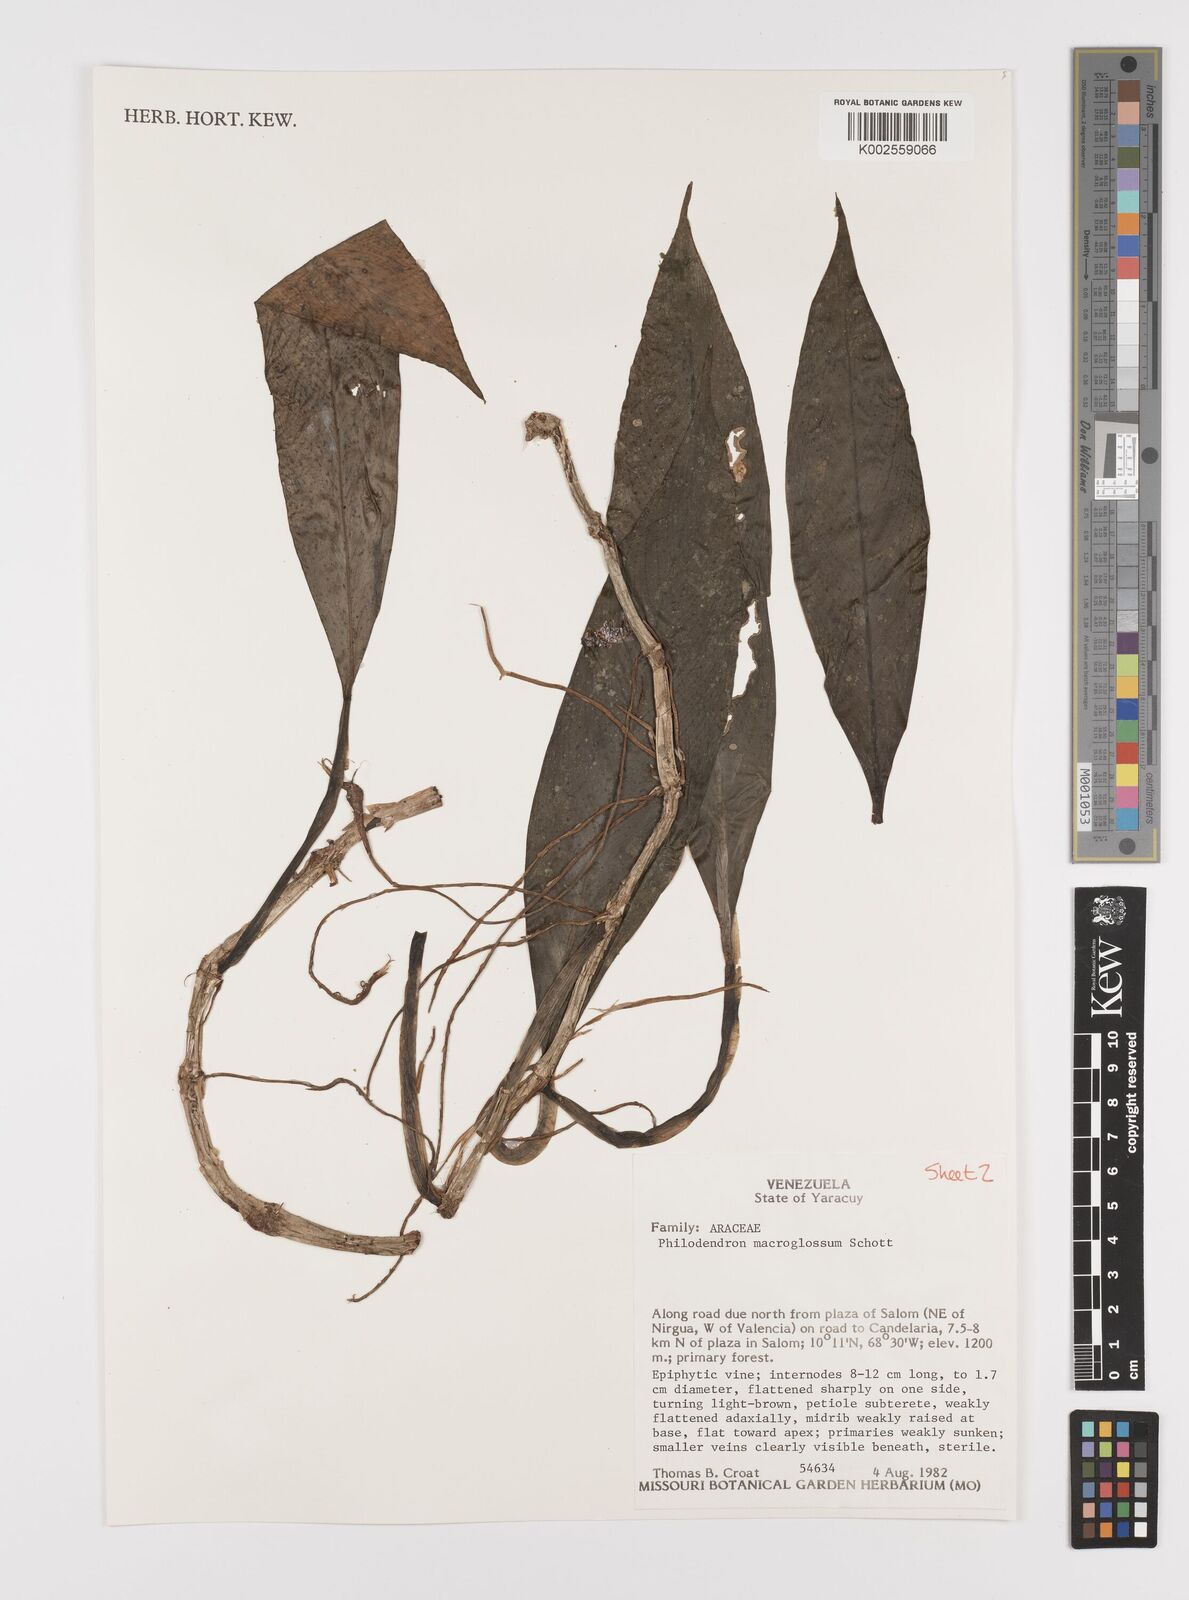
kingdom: Plantae
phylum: Tracheophyta
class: Liliopsida
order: Alismatales
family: Araceae
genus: Philodendron
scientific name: Philodendron macroglossum
